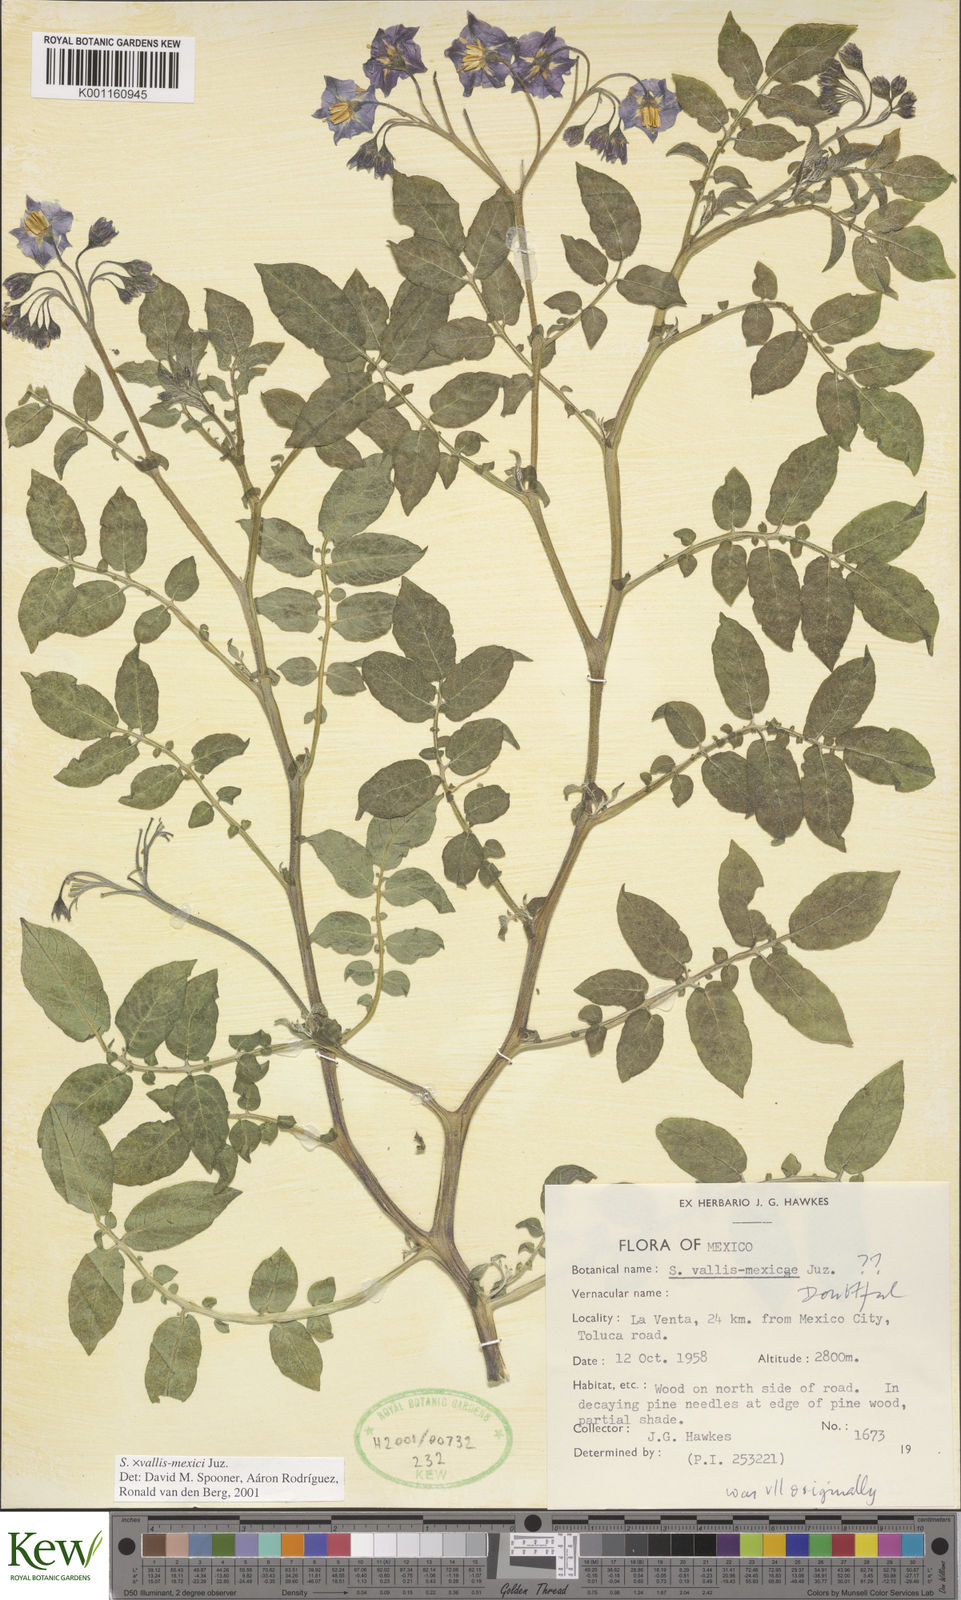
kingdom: Plantae
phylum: Tracheophyta
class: Magnoliopsida
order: Solanales
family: Solanaceae
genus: Solanum
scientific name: Solanum vallis-mexici
